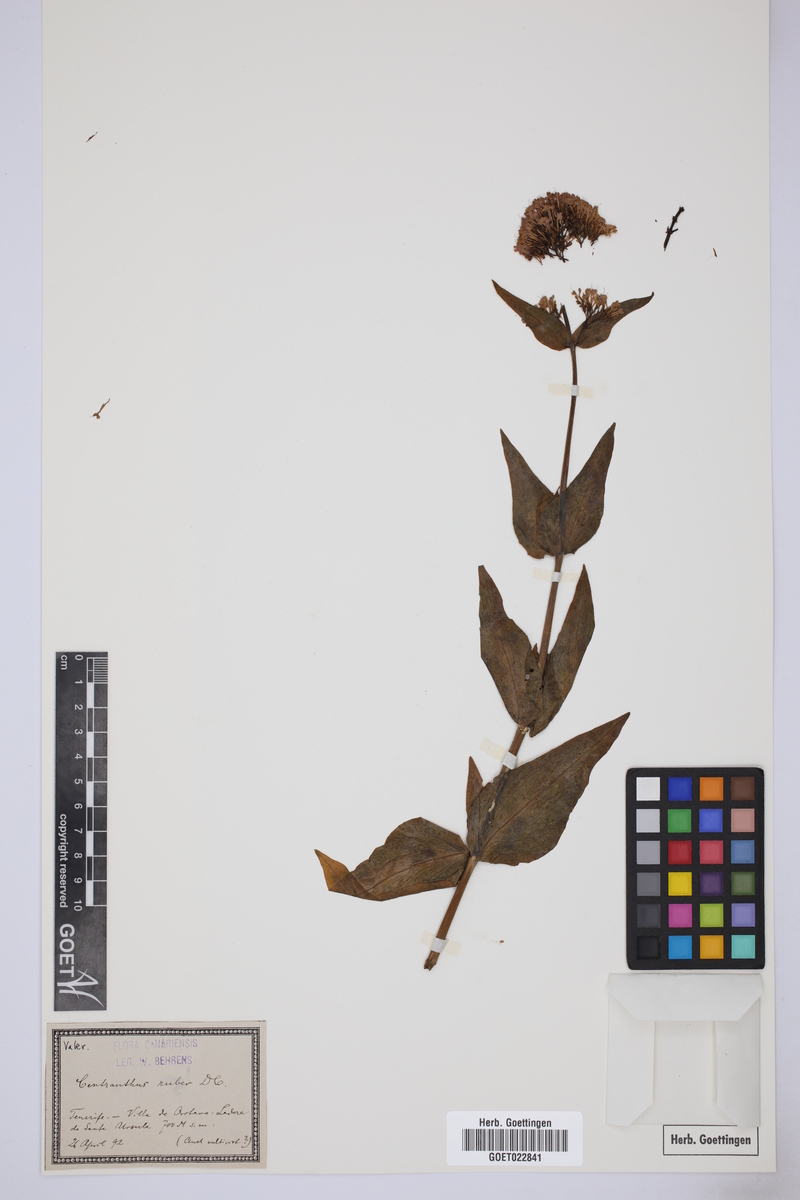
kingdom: Plantae
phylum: Tracheophyta
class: Magnoliopsida
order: Dipsacales
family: Caprifoliaceae
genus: Centranthus
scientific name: Centranthus ruber
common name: Red valerian
